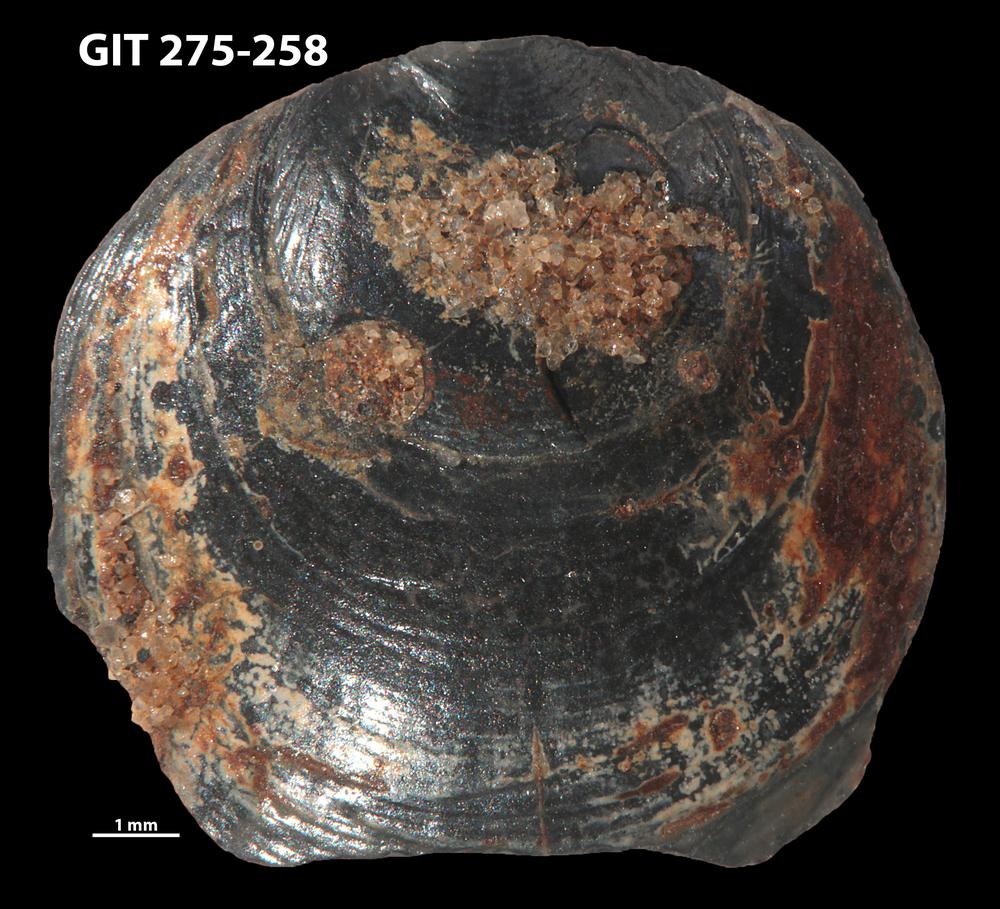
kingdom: Animalia
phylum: Porifera
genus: Ungula
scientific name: Ungula ingricus
